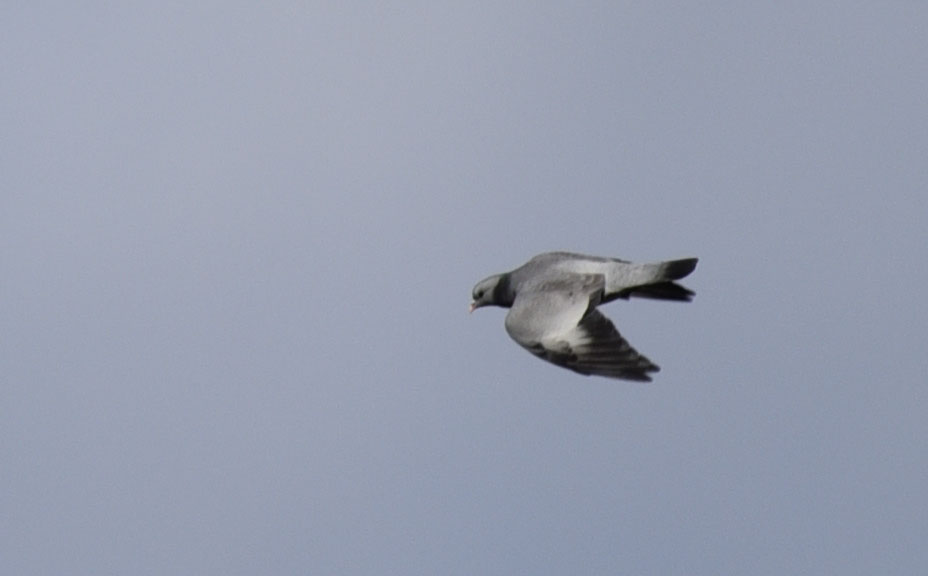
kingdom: Animalia
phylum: Chordata
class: Aves
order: Columbiformes
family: Columbidae
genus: Columba
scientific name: Columba oenas
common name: Stock dove
